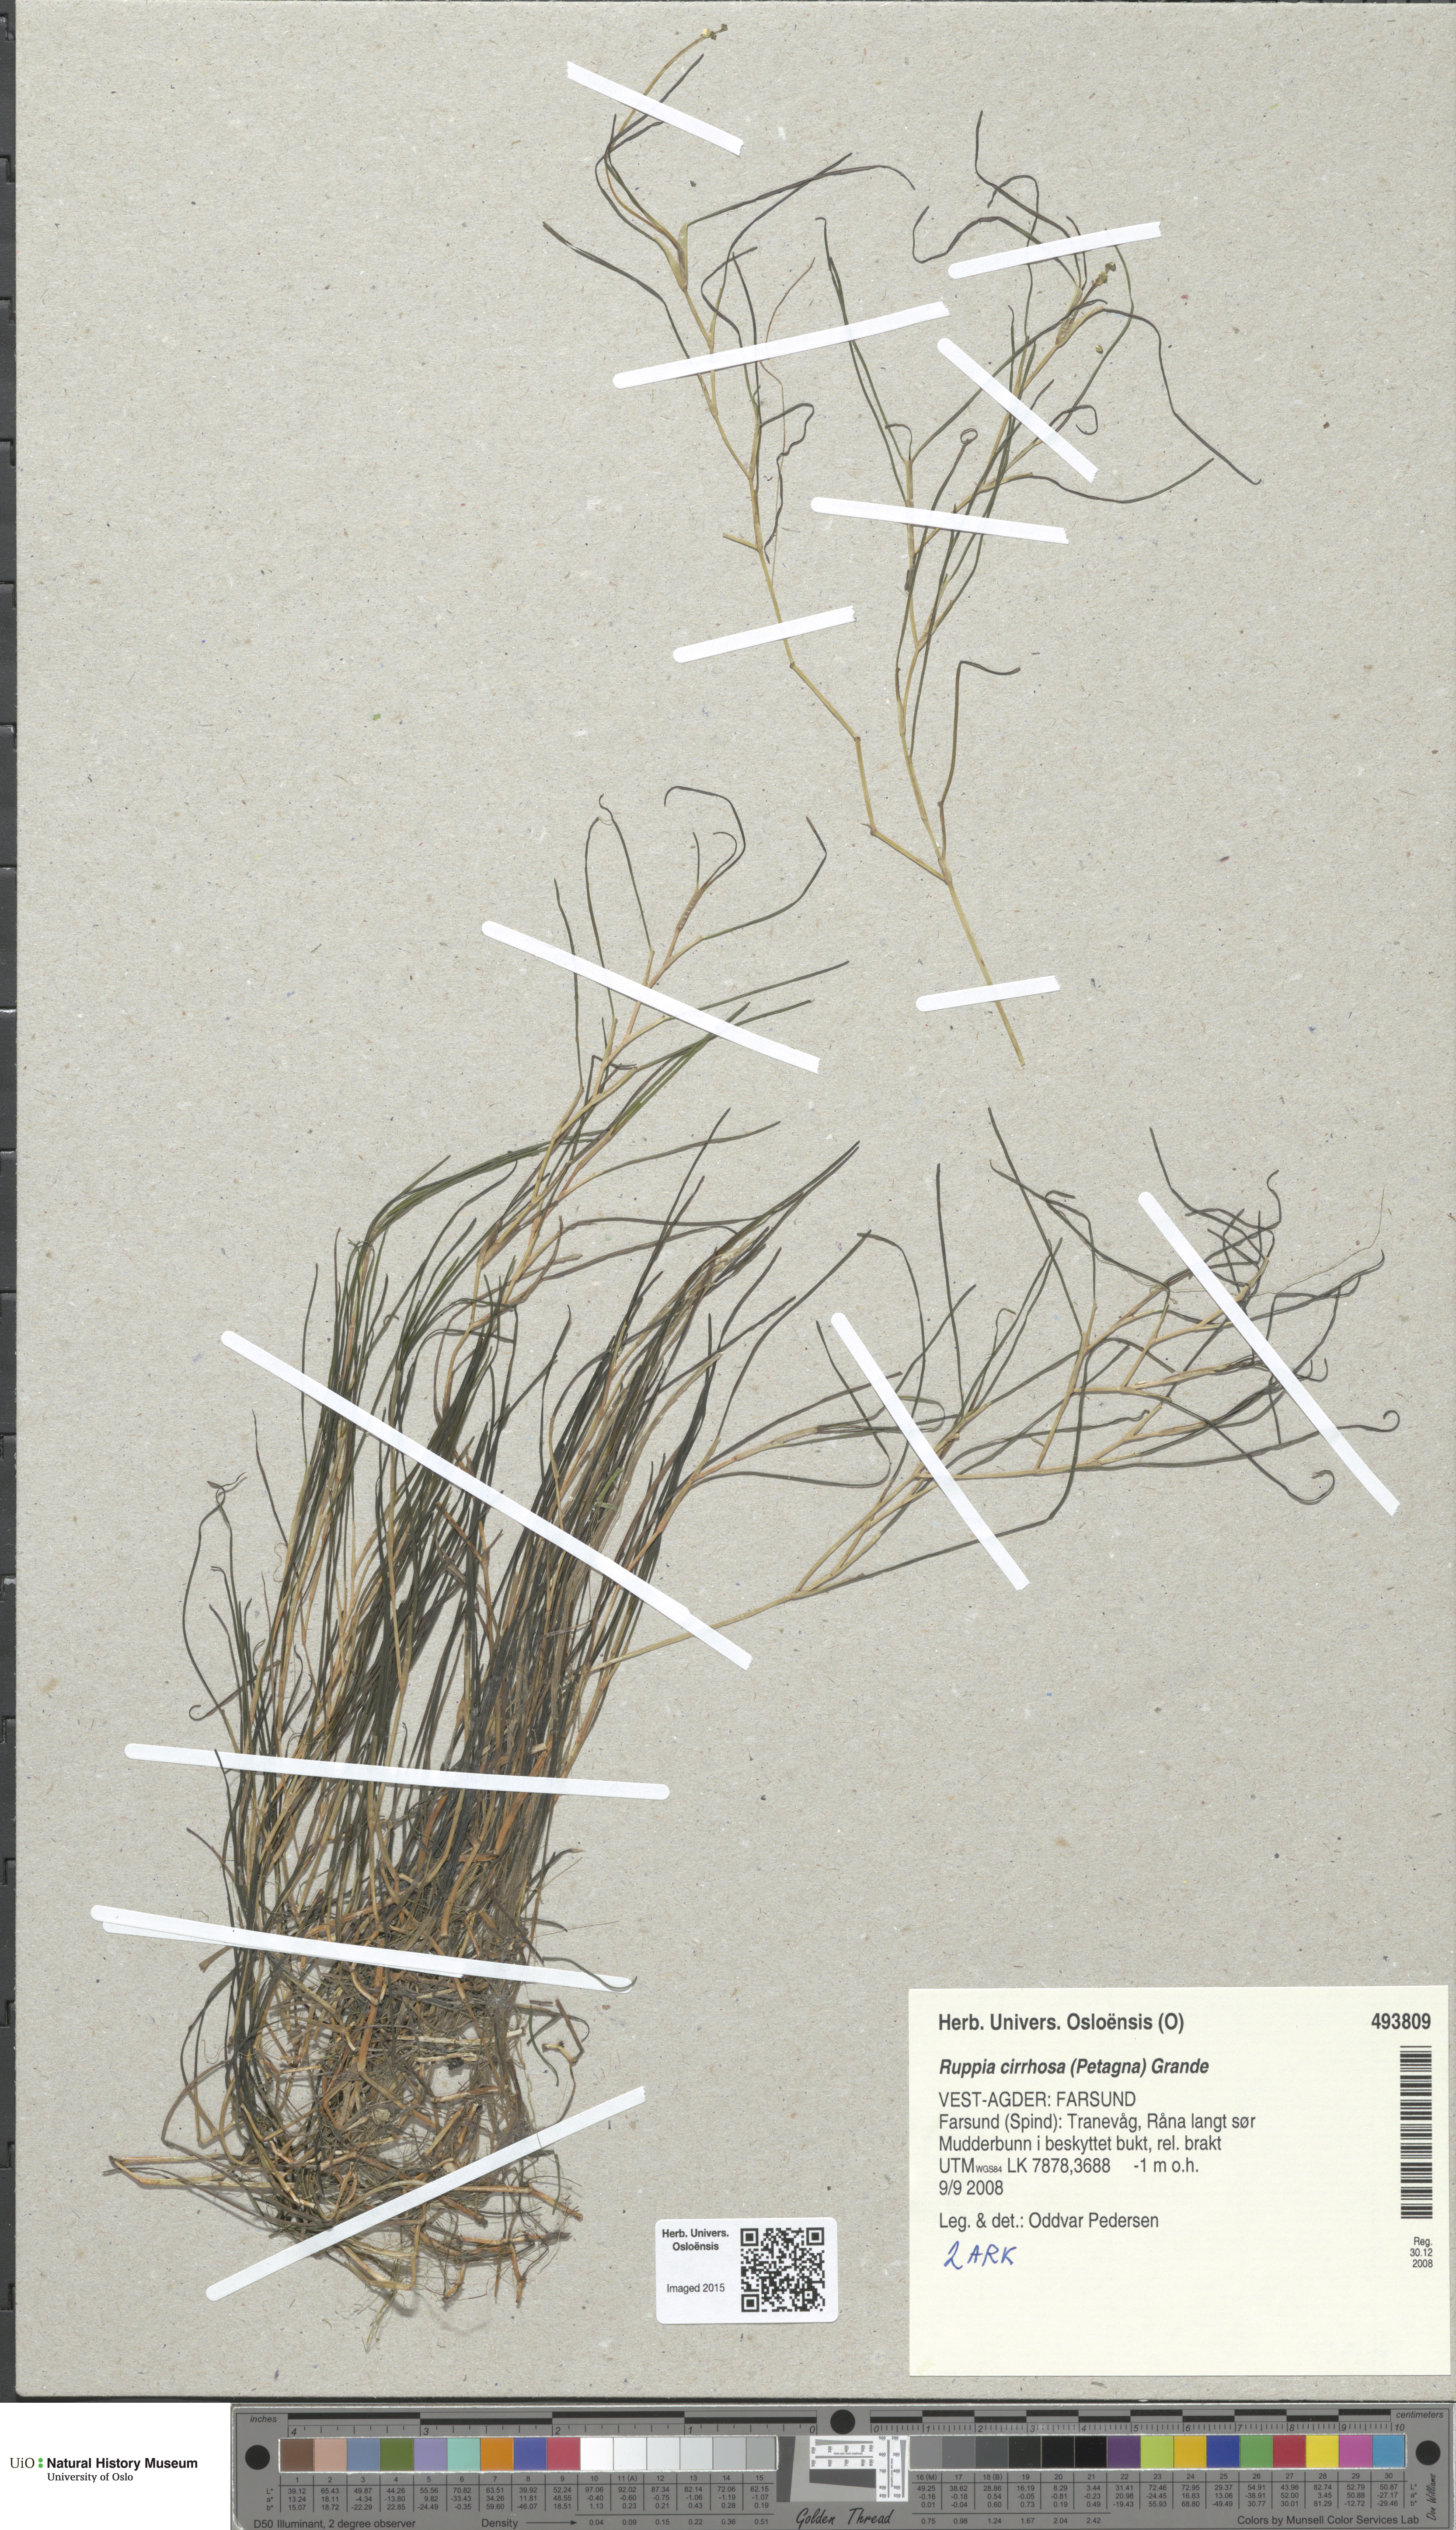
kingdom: Plantae
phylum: Tracheophyta
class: Liliopsida
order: Alismatales
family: Ruppiaceae
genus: Ruppia
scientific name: Ruppia cirrhosa
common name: Spiral tasselweed
